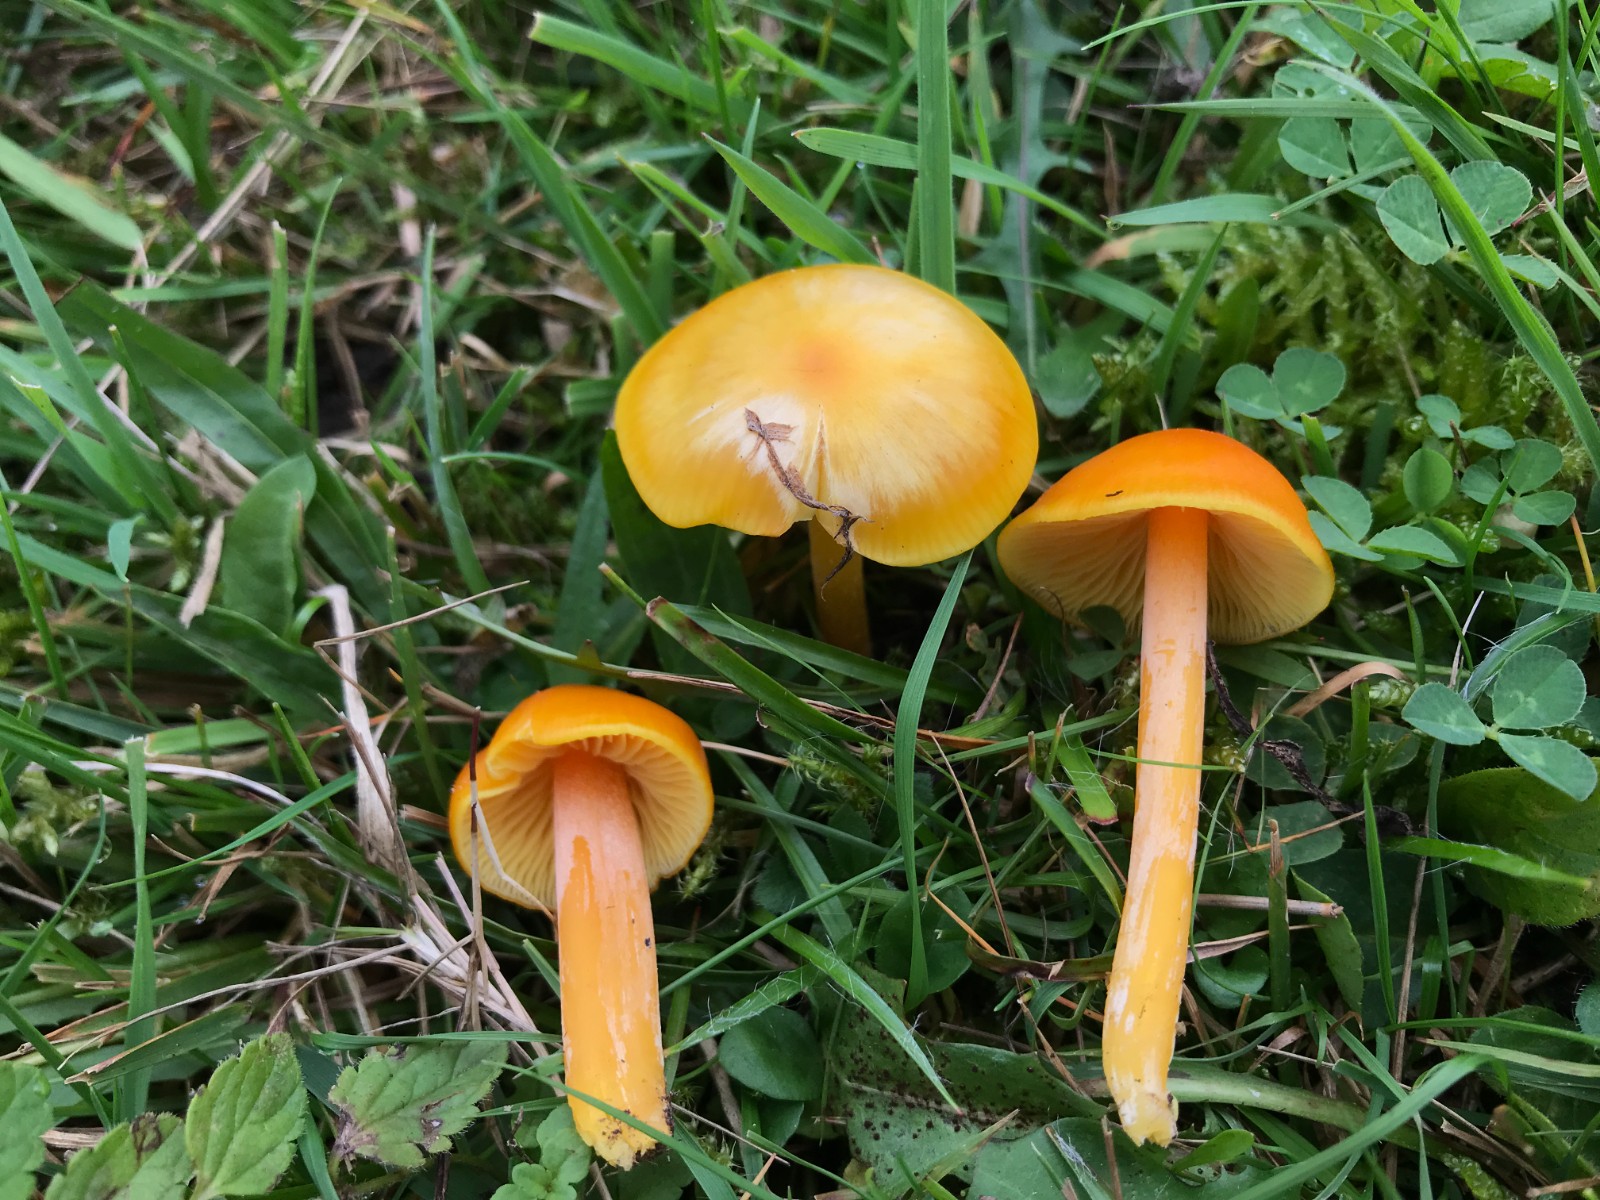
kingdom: Fungi
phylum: Basidiomycota
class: Agaricomycetes
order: Agaricales
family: Hygrophoraceae
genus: Hygrocybe
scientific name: Hygrocybe chlorophana
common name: gul vokshat
